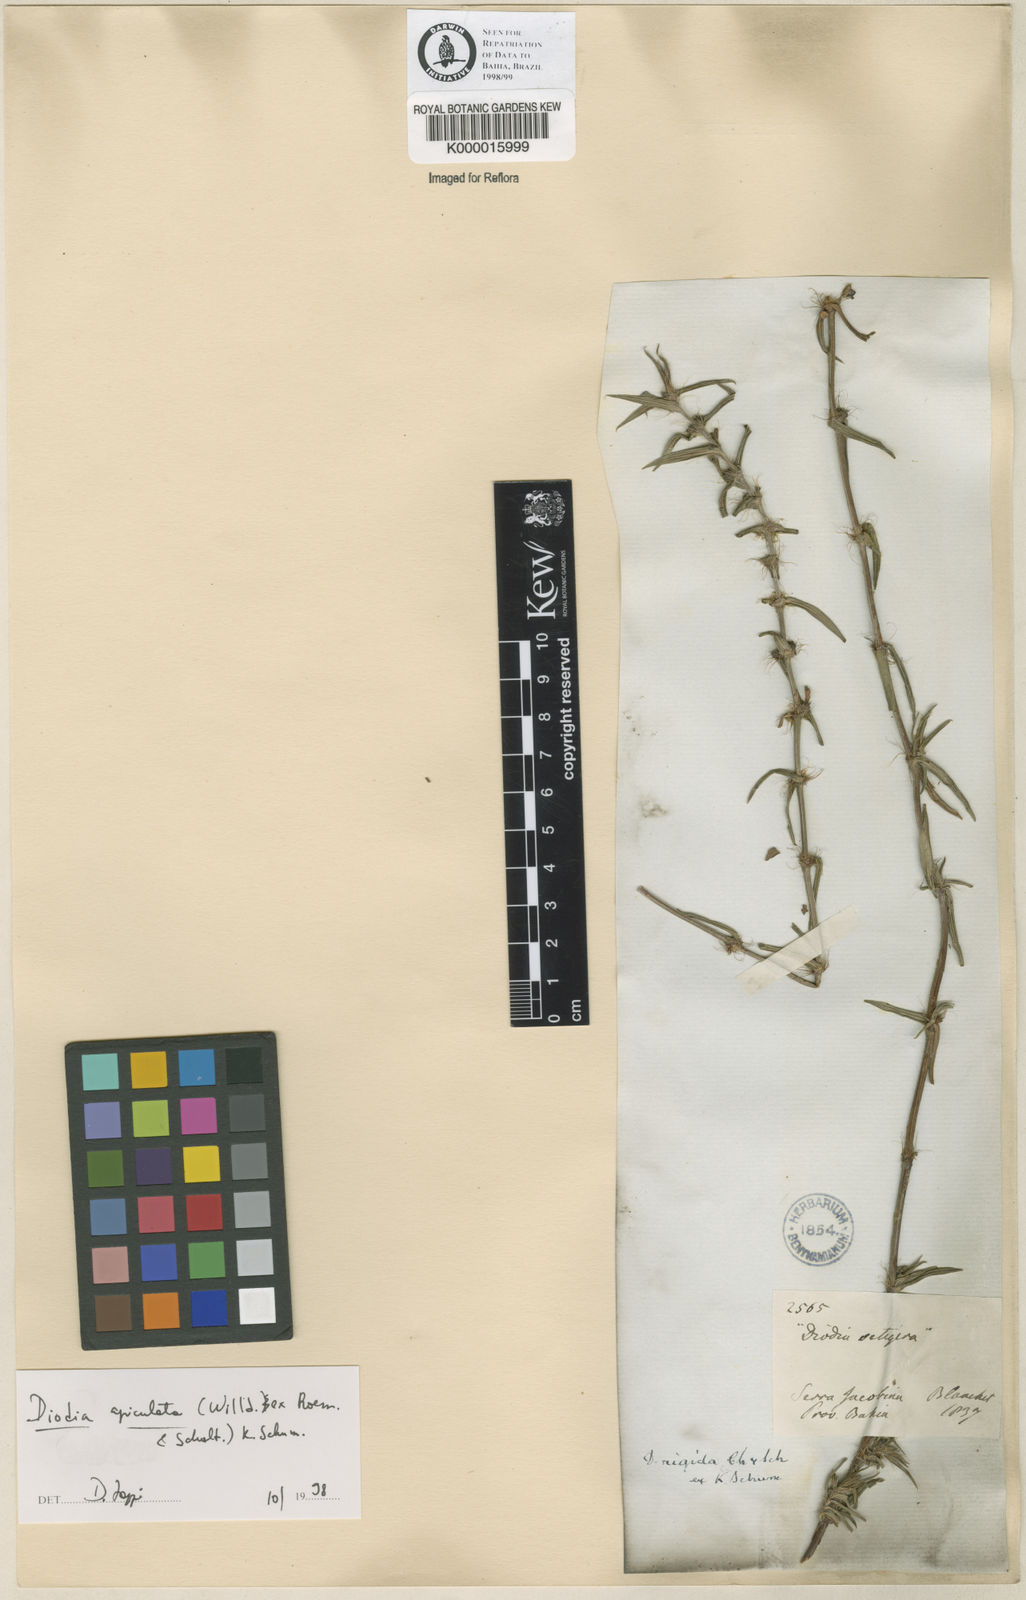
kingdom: Plantae
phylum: Tracheophyta
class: Magnoliopsida
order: Gentianales
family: Rubiaceae
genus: Hexasepalum
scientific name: Hexasepalum apiculatum
